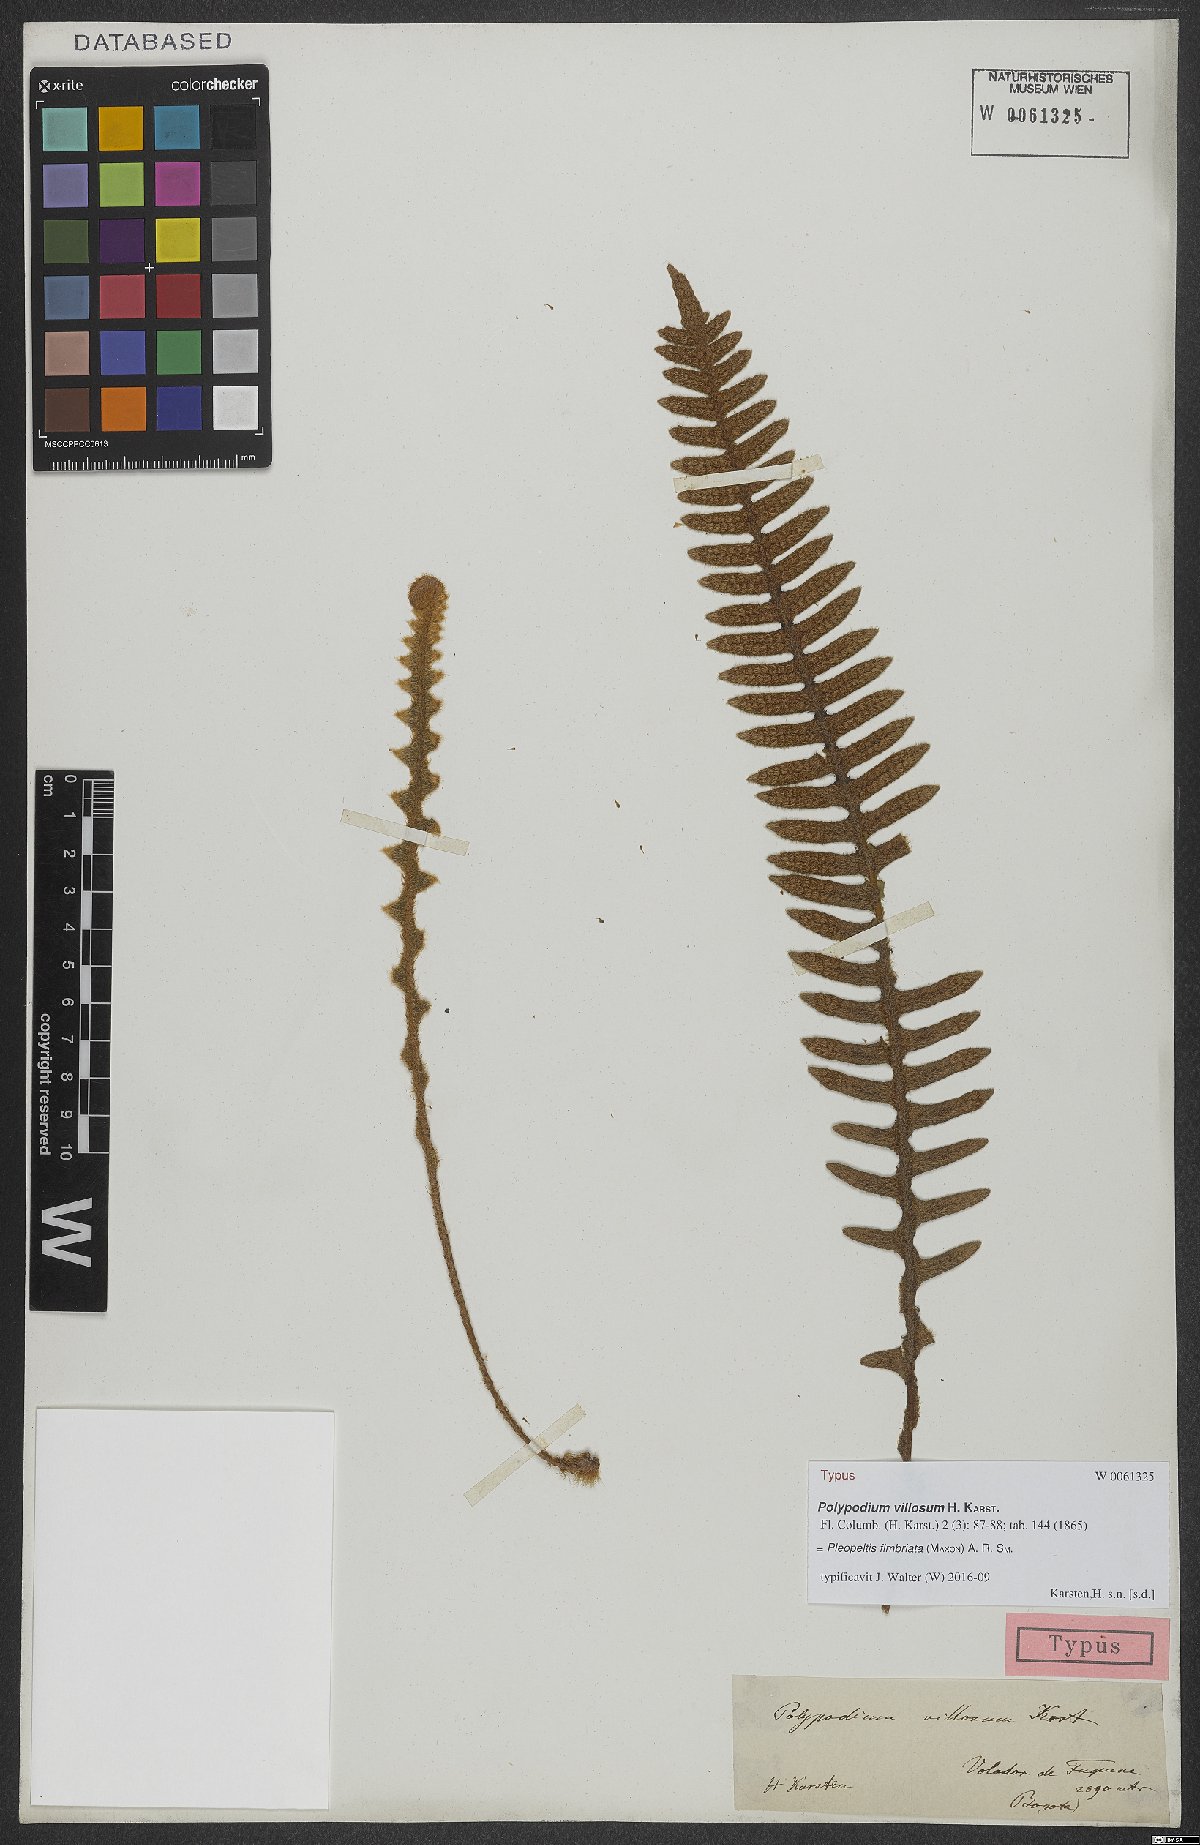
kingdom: Plantae
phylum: Tracheophyta
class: Polypodiopsida
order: Polypodiales
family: Polypodiaceae
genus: Pleopeltis
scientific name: Pleopeltis fimbriata
